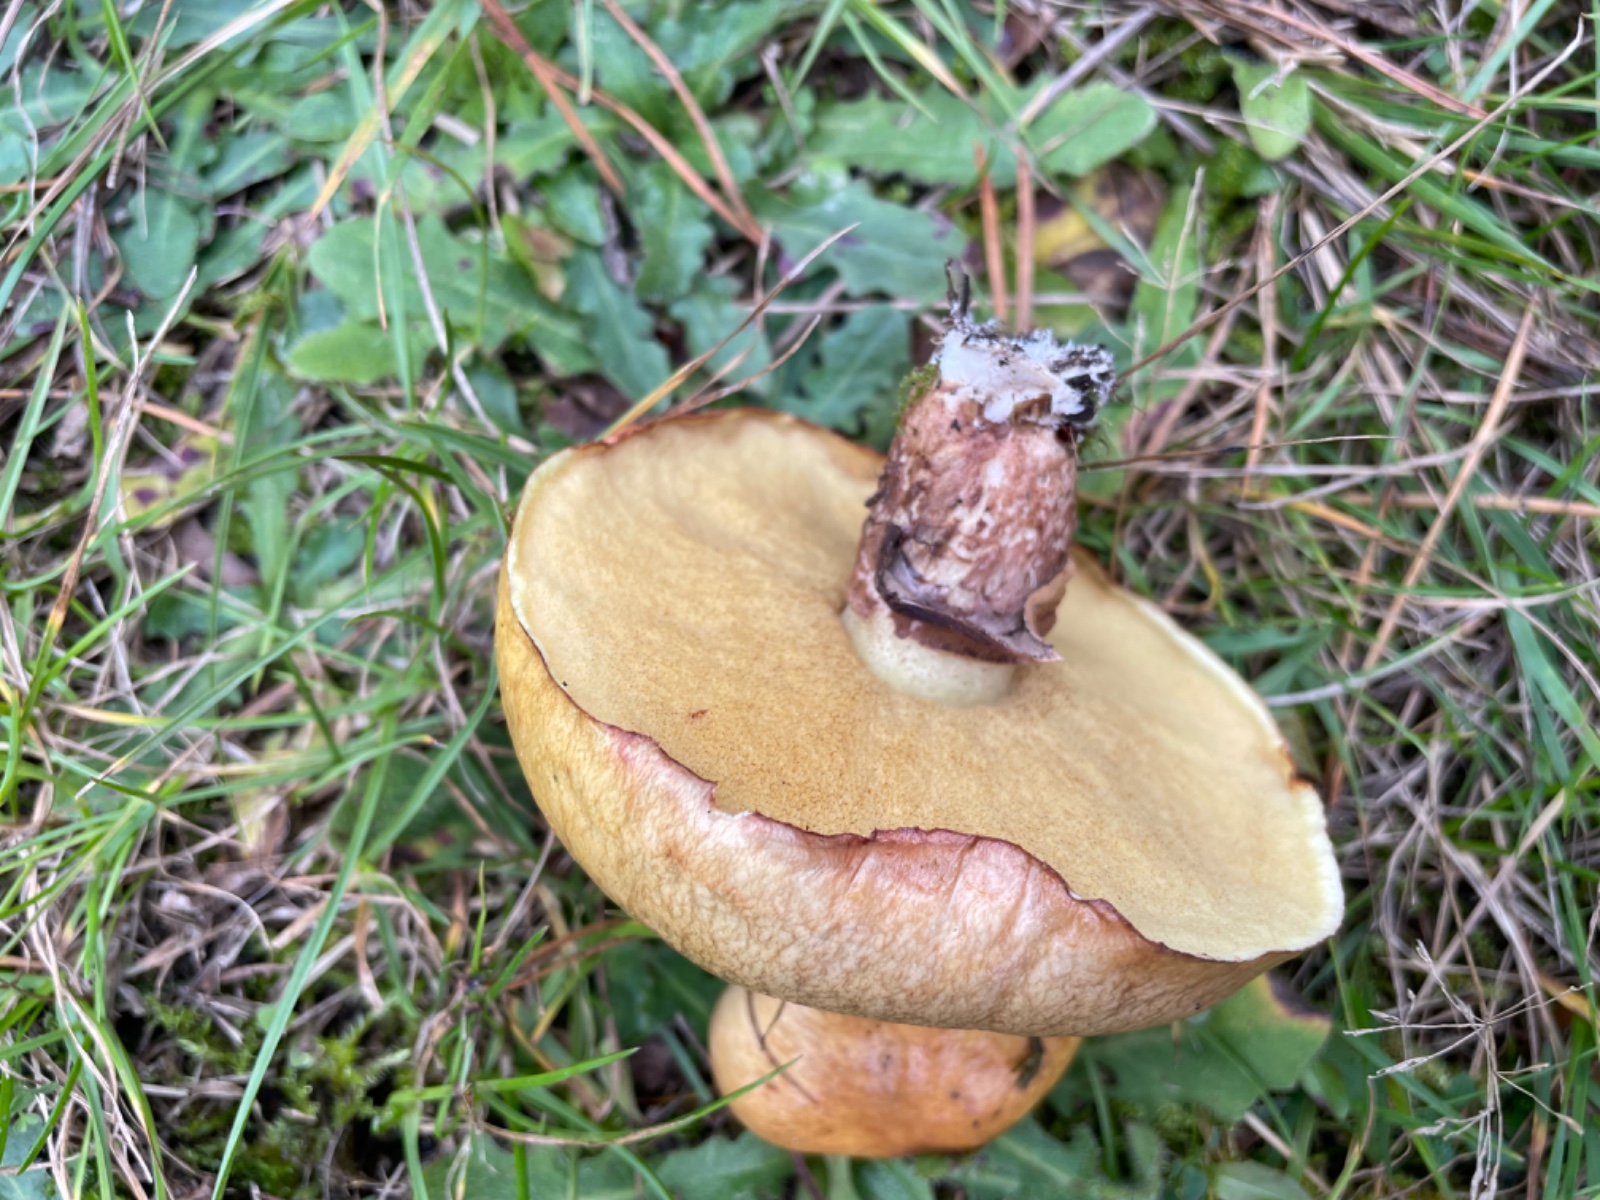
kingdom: Fungi
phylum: Basidiomycota
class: Agaricomycetes
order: Boletales
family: Suillaceae
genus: Suillus
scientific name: Suillus luteus
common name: brungul slimrørhat
